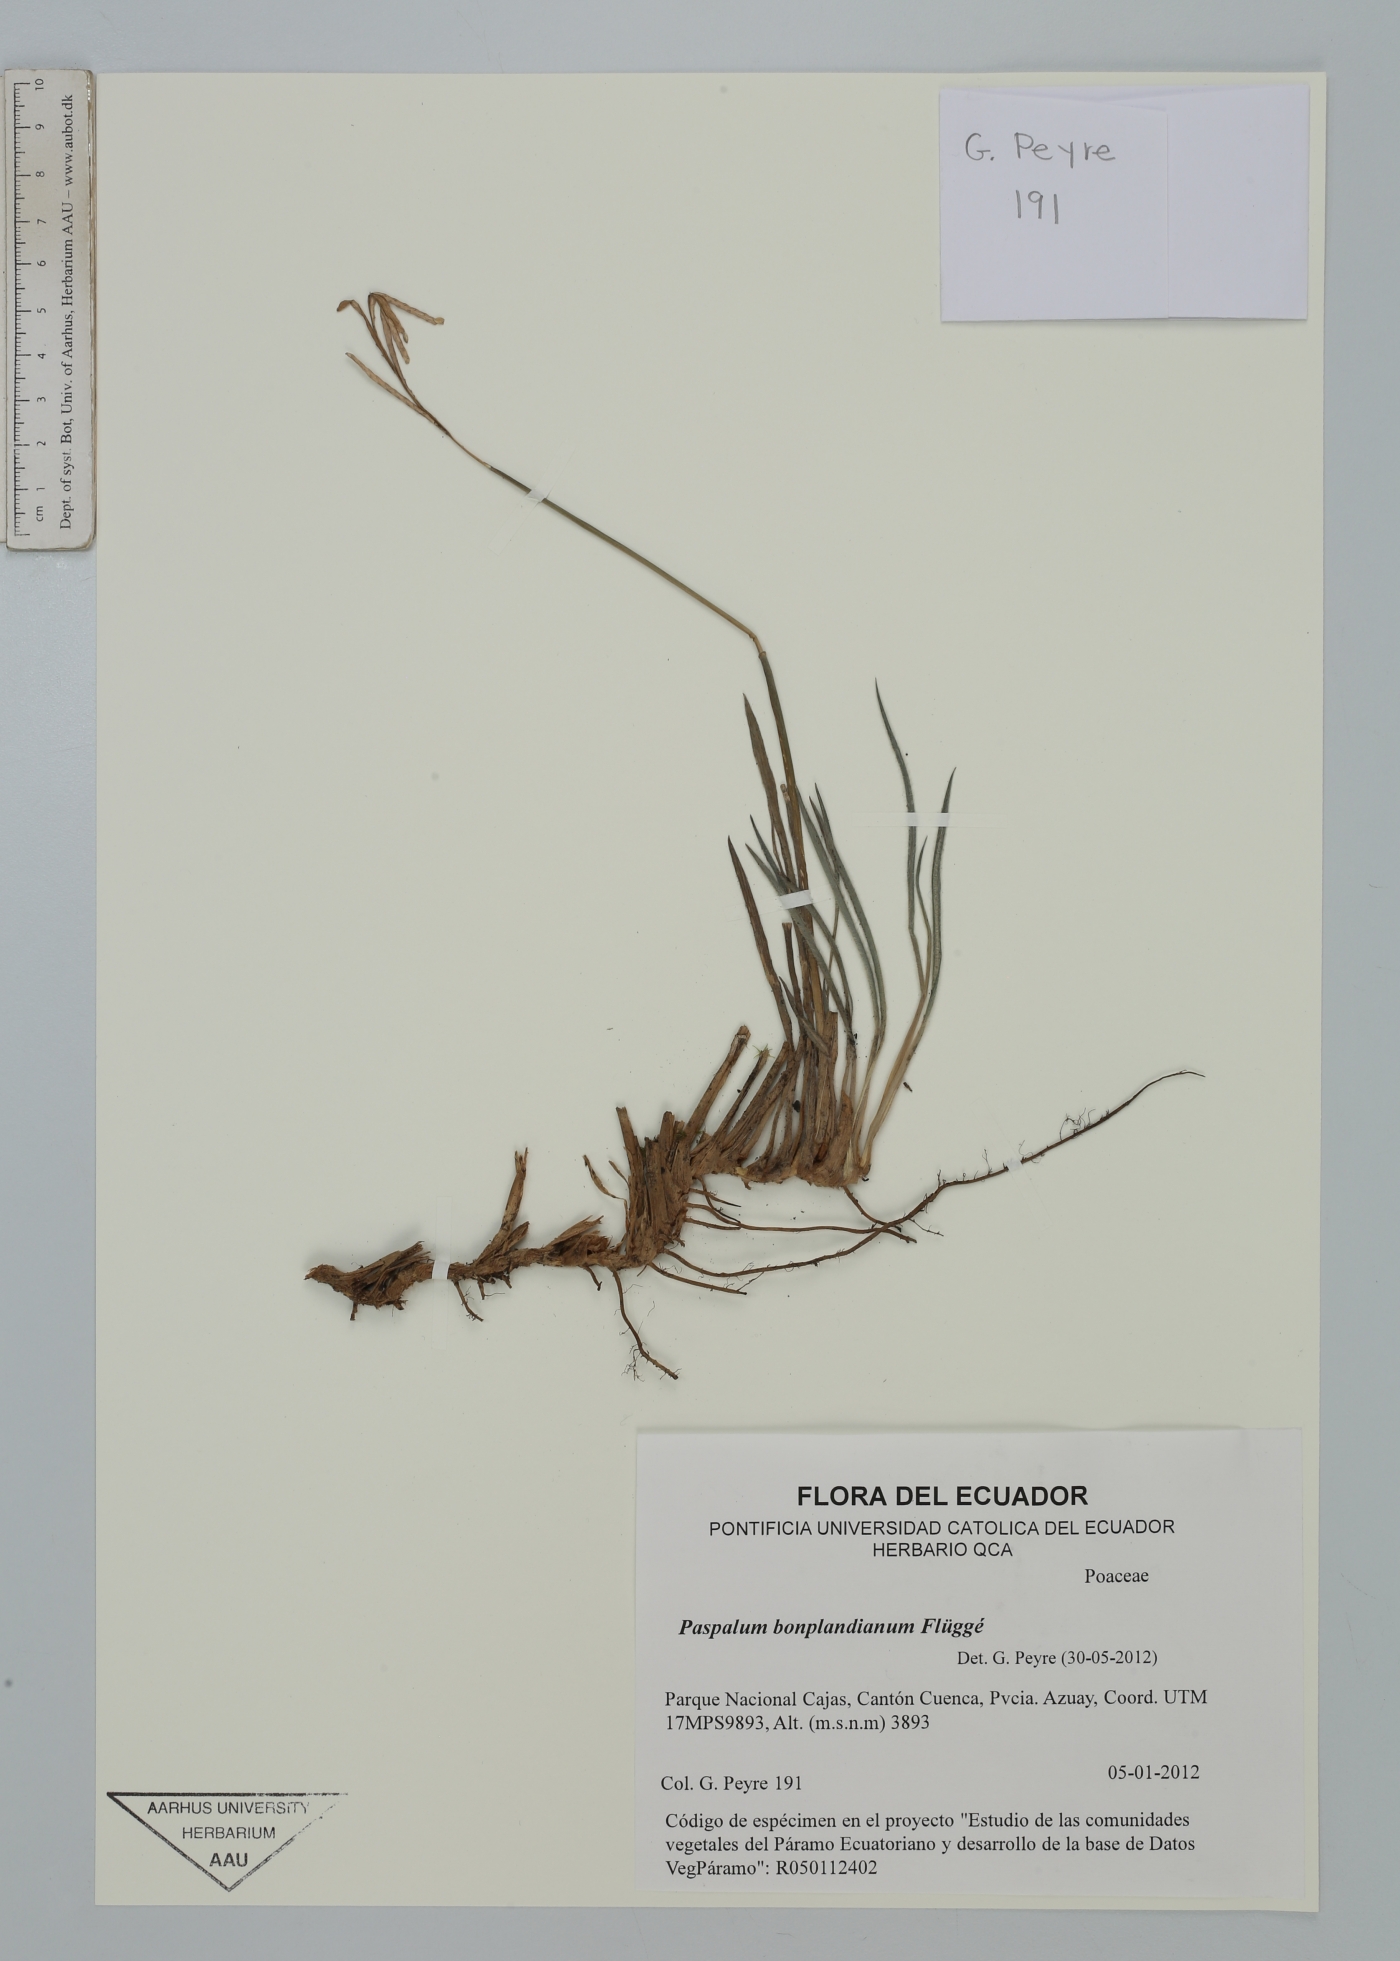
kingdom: Plantae
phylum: Tracheophyta
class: Liliopsida
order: Poales
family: Poaceae
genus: Paspalum
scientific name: Paspalum bonplandianum
